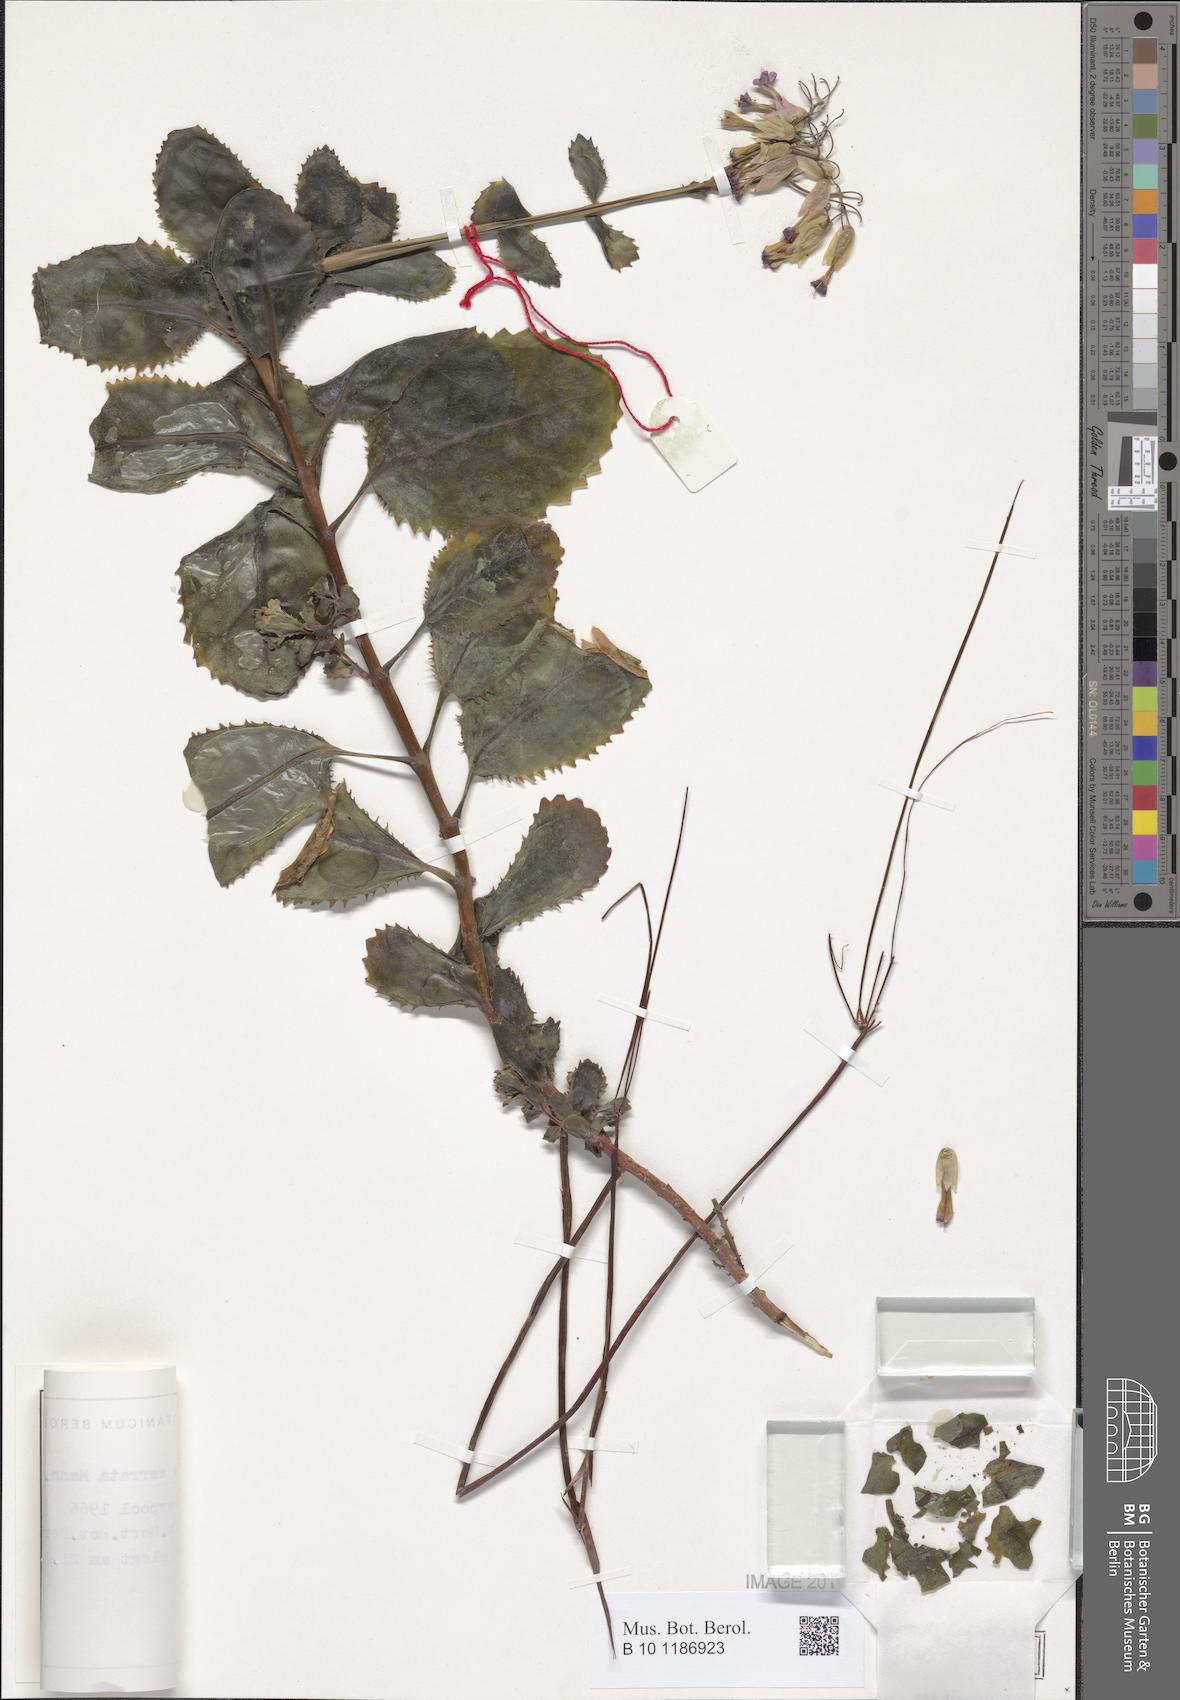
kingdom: Plantae
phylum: Tracheophyta
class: Magnoliopsida
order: Saxifragales
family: Crassulaceae
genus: Kalanchoe
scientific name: Kalanchoe serrata
